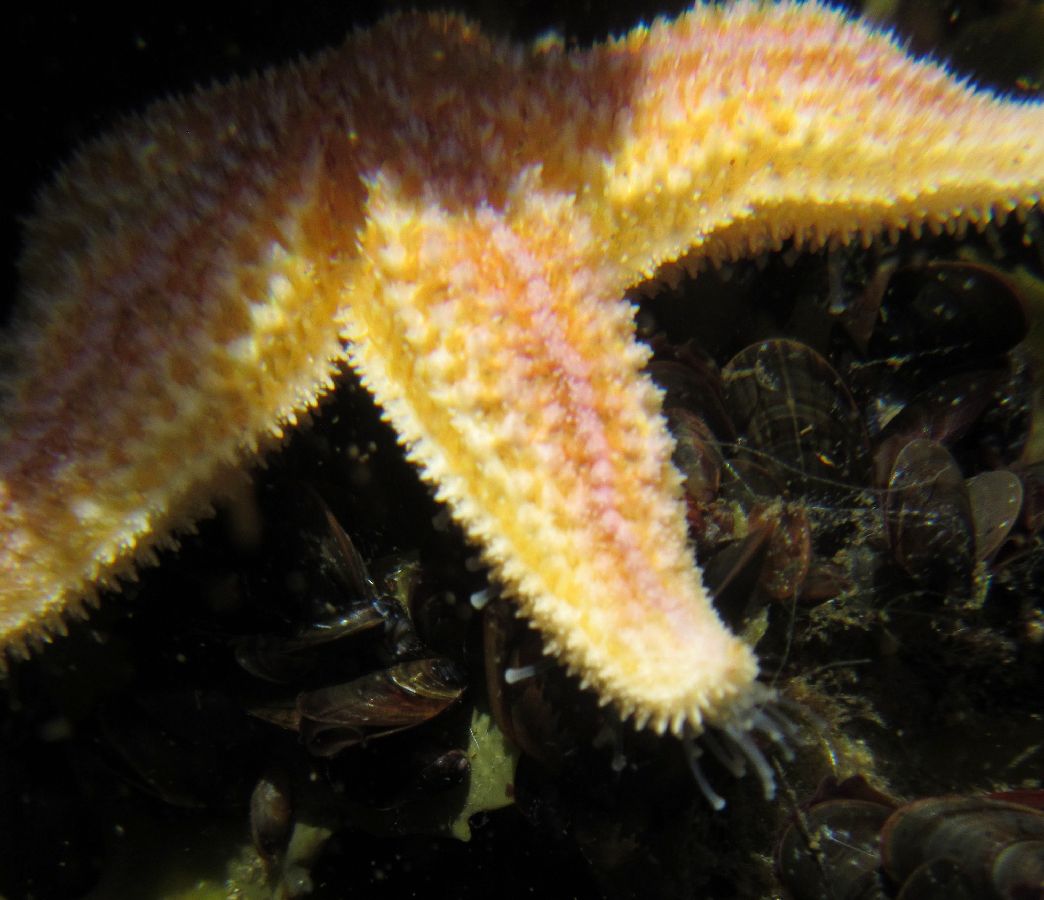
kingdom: Animalia
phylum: Echinodermata
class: Asteroidea
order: Forcipulatida
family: Asteriidae
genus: Asterias
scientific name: Asterias rubens
